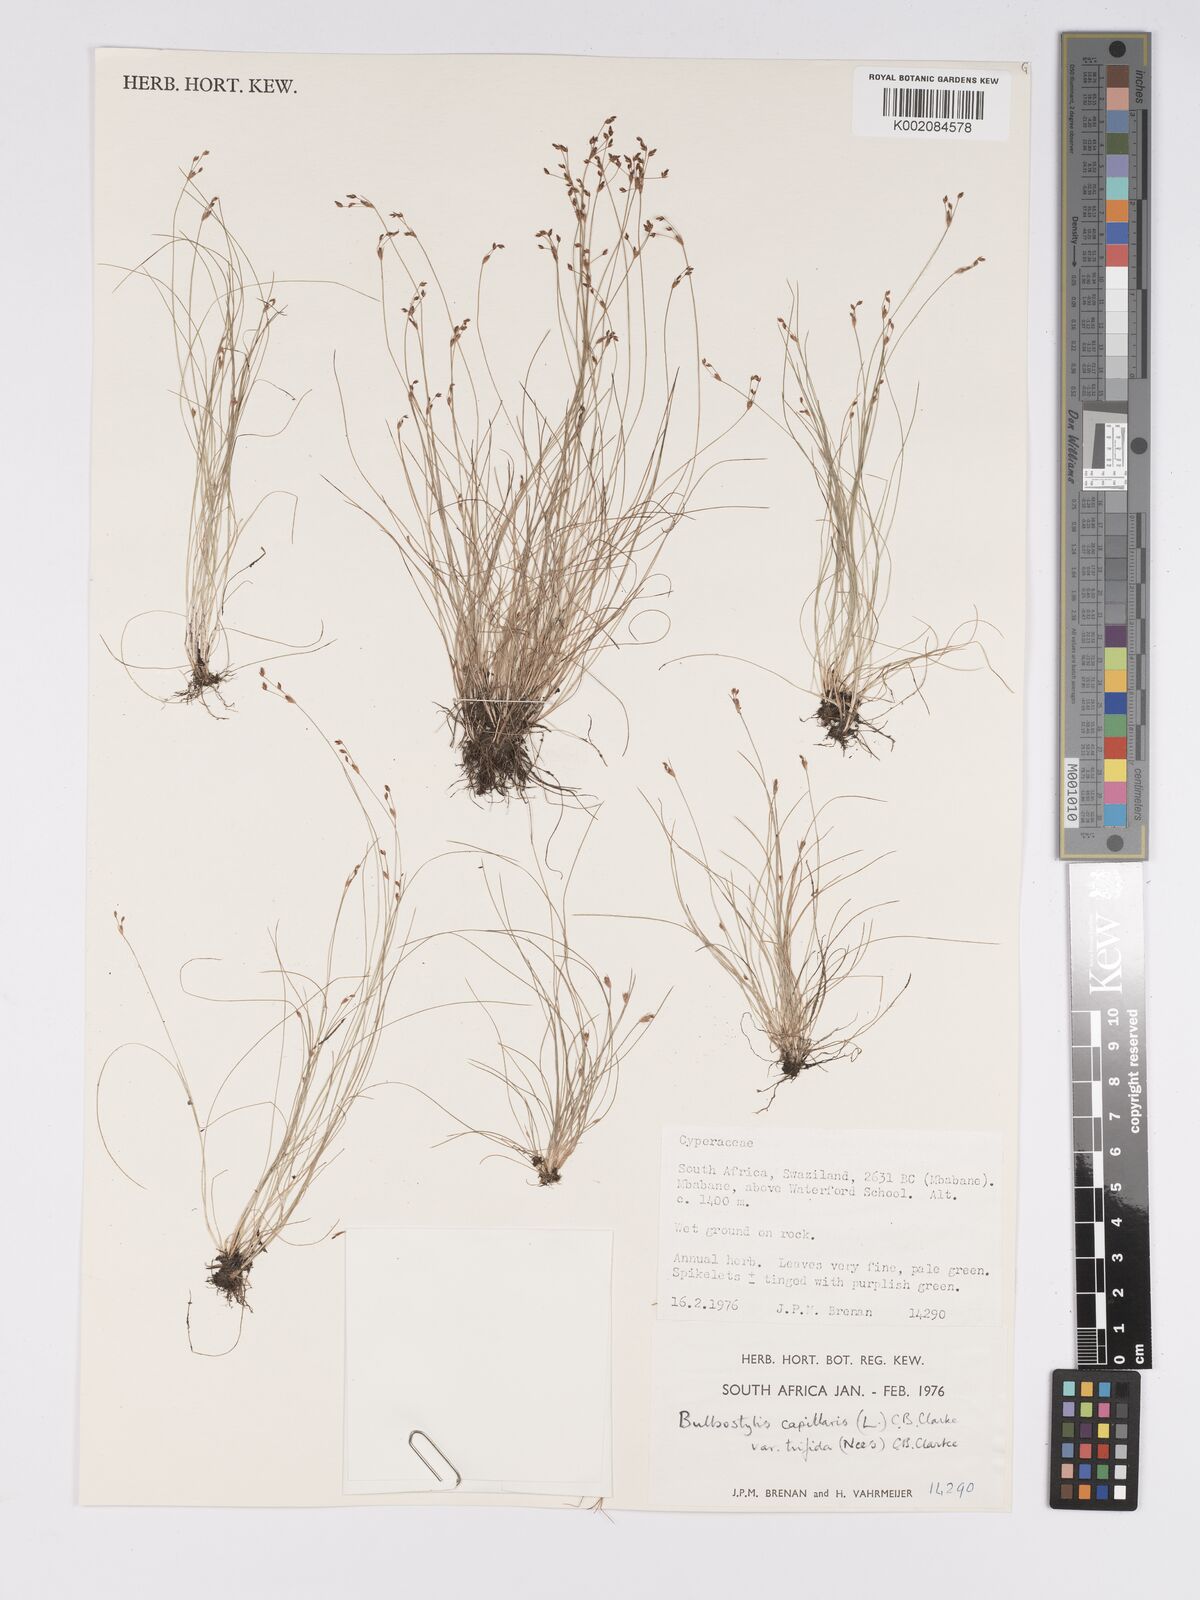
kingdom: Plantae
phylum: Tracheophyta
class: Liliopsida
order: Poales
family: Cyperaceae
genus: Bulbostylis
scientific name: Bulbostylis capillaris
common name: Densetuft hairsedge
